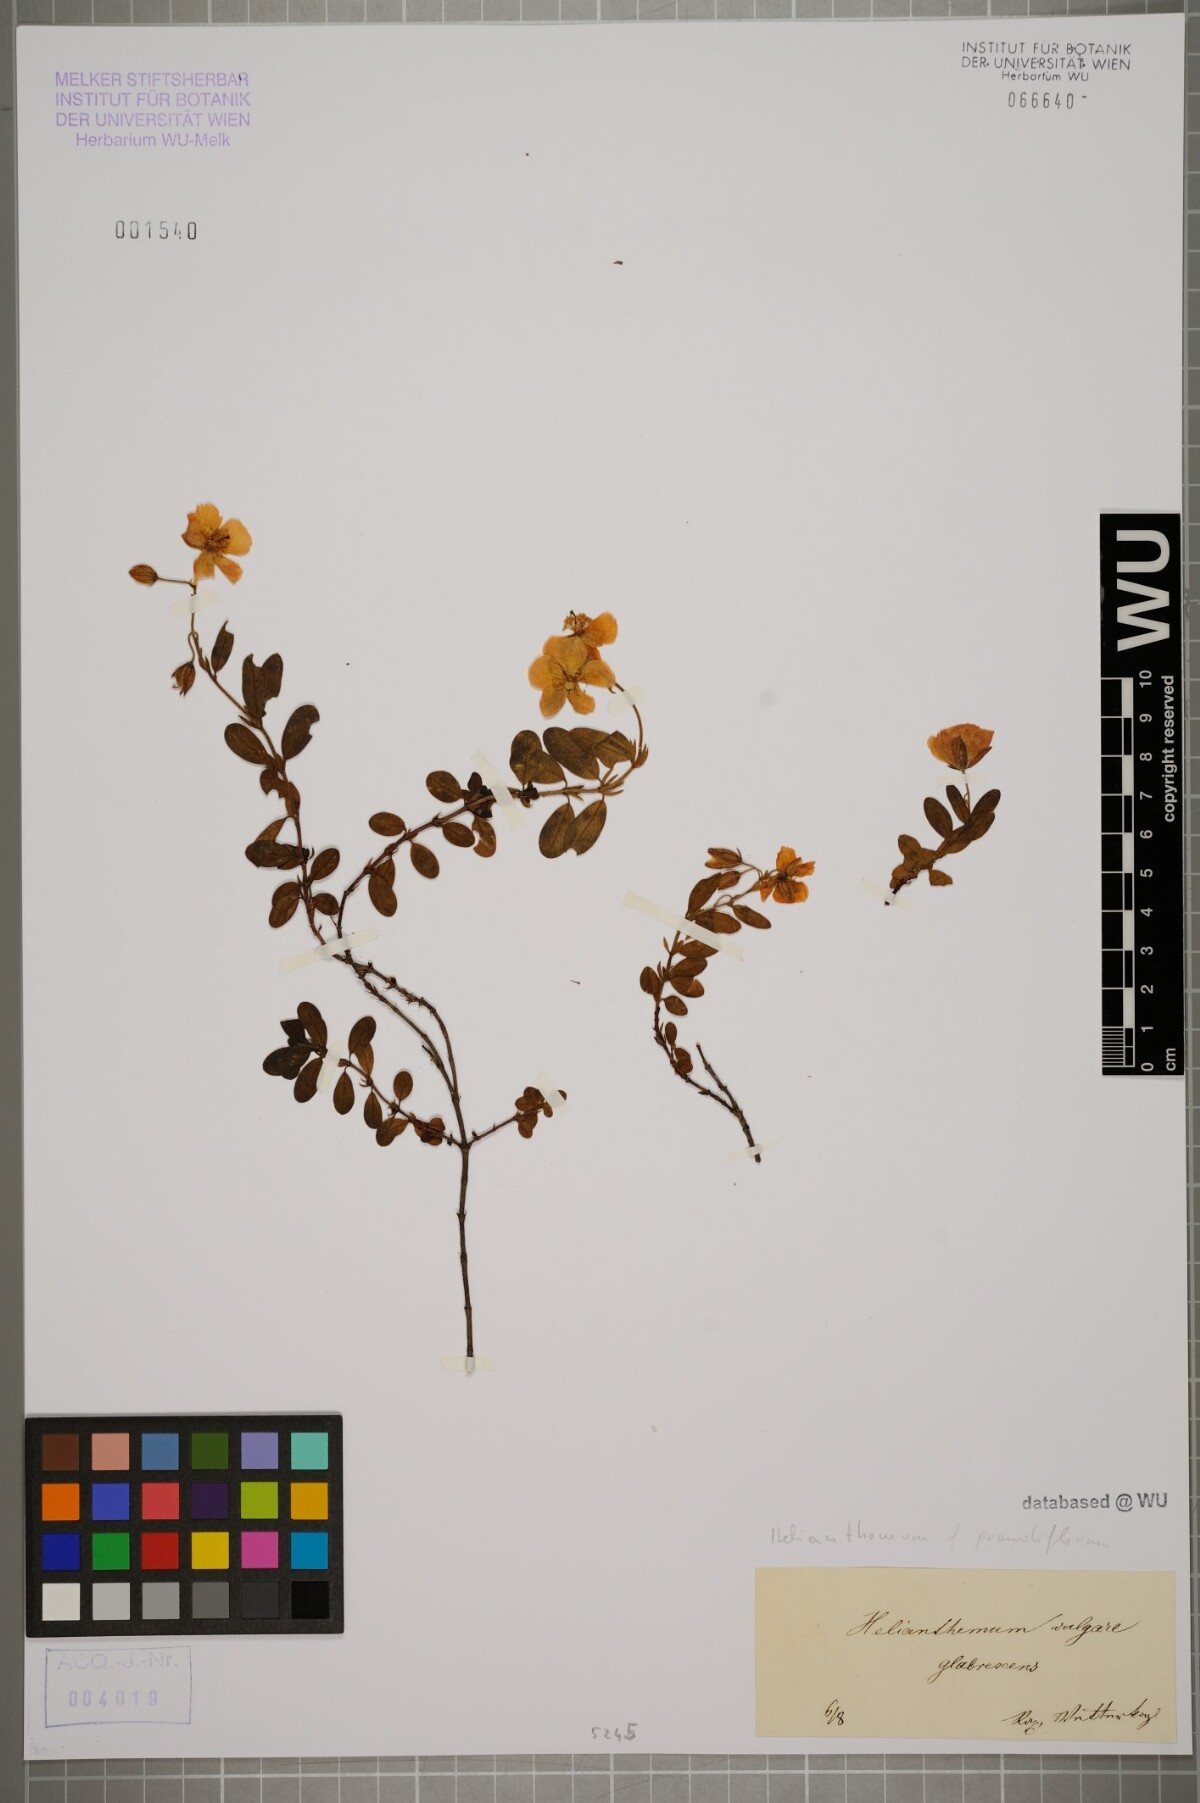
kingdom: Plantae
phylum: Tracheophyta
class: Magnoliopsida
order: Malvales
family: Cistaceae
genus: Helianthemum
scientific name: Helianthemum nummularium
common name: Common rock-rose
